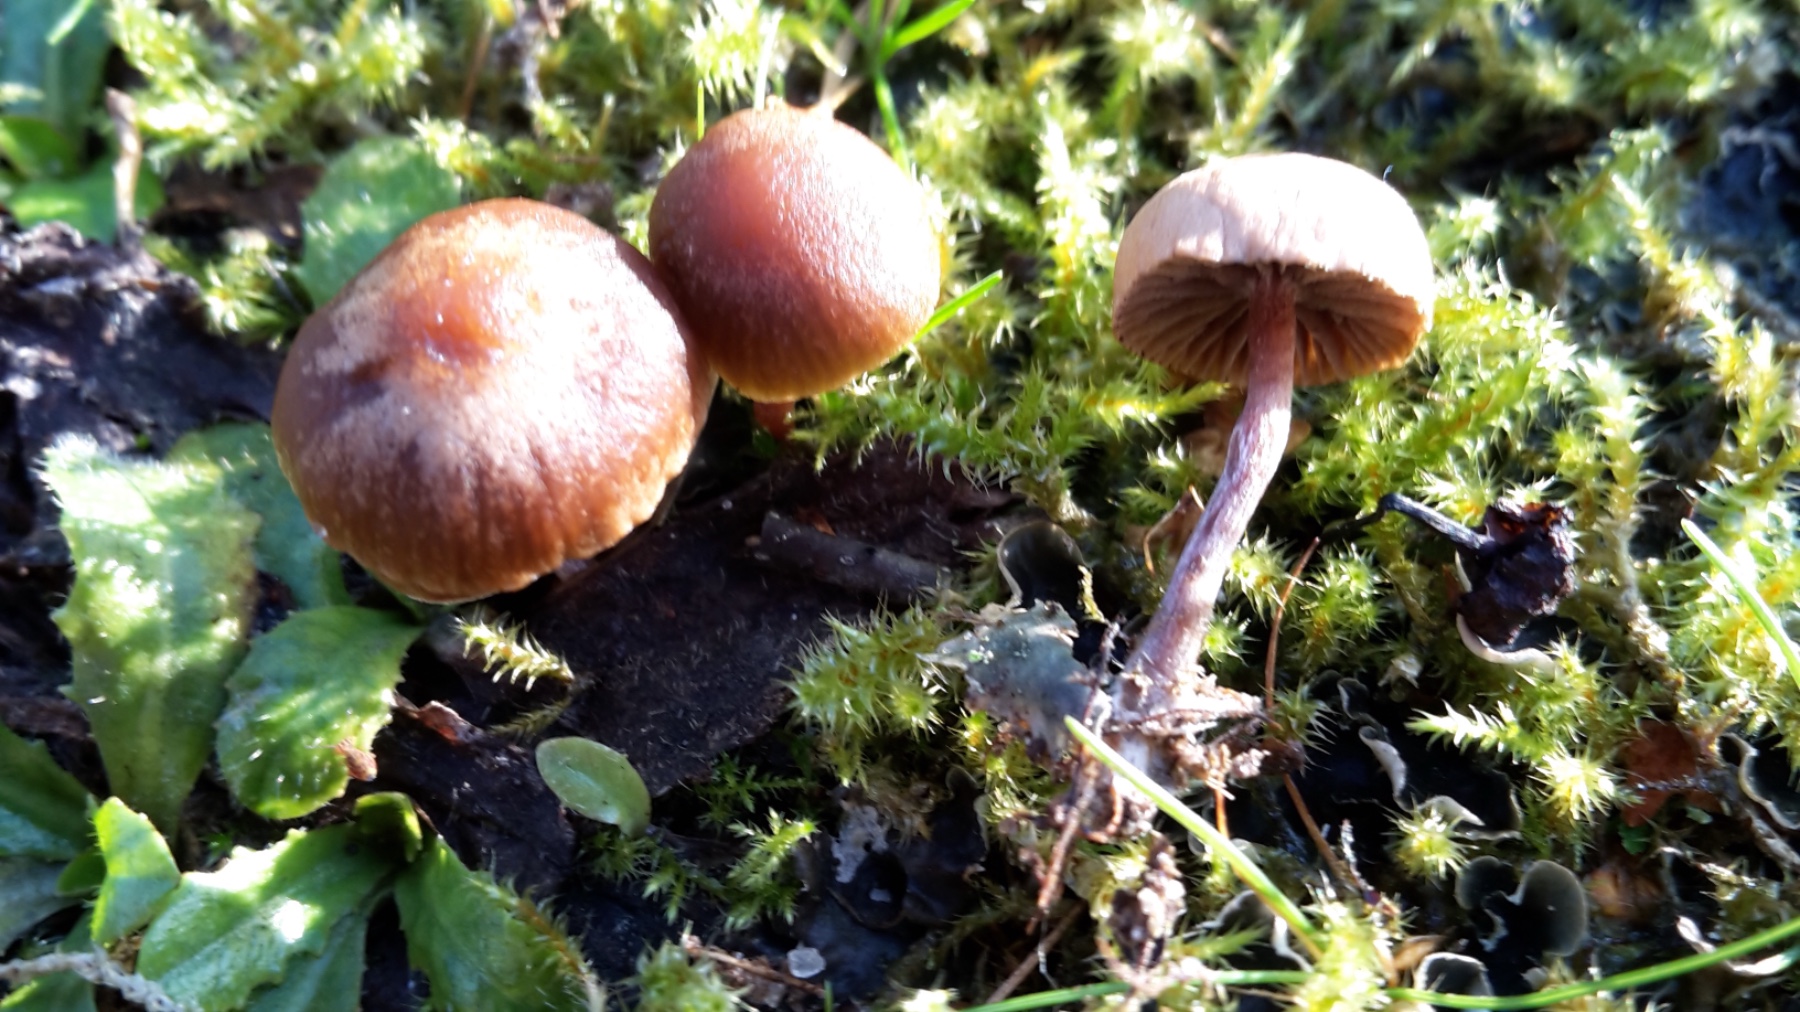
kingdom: Fungi
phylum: Basidiomycota
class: Agaricomycetes
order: Agaricales
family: Strophariaceae
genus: Deconica
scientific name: Deconica montana
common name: rødbrun stråhat
